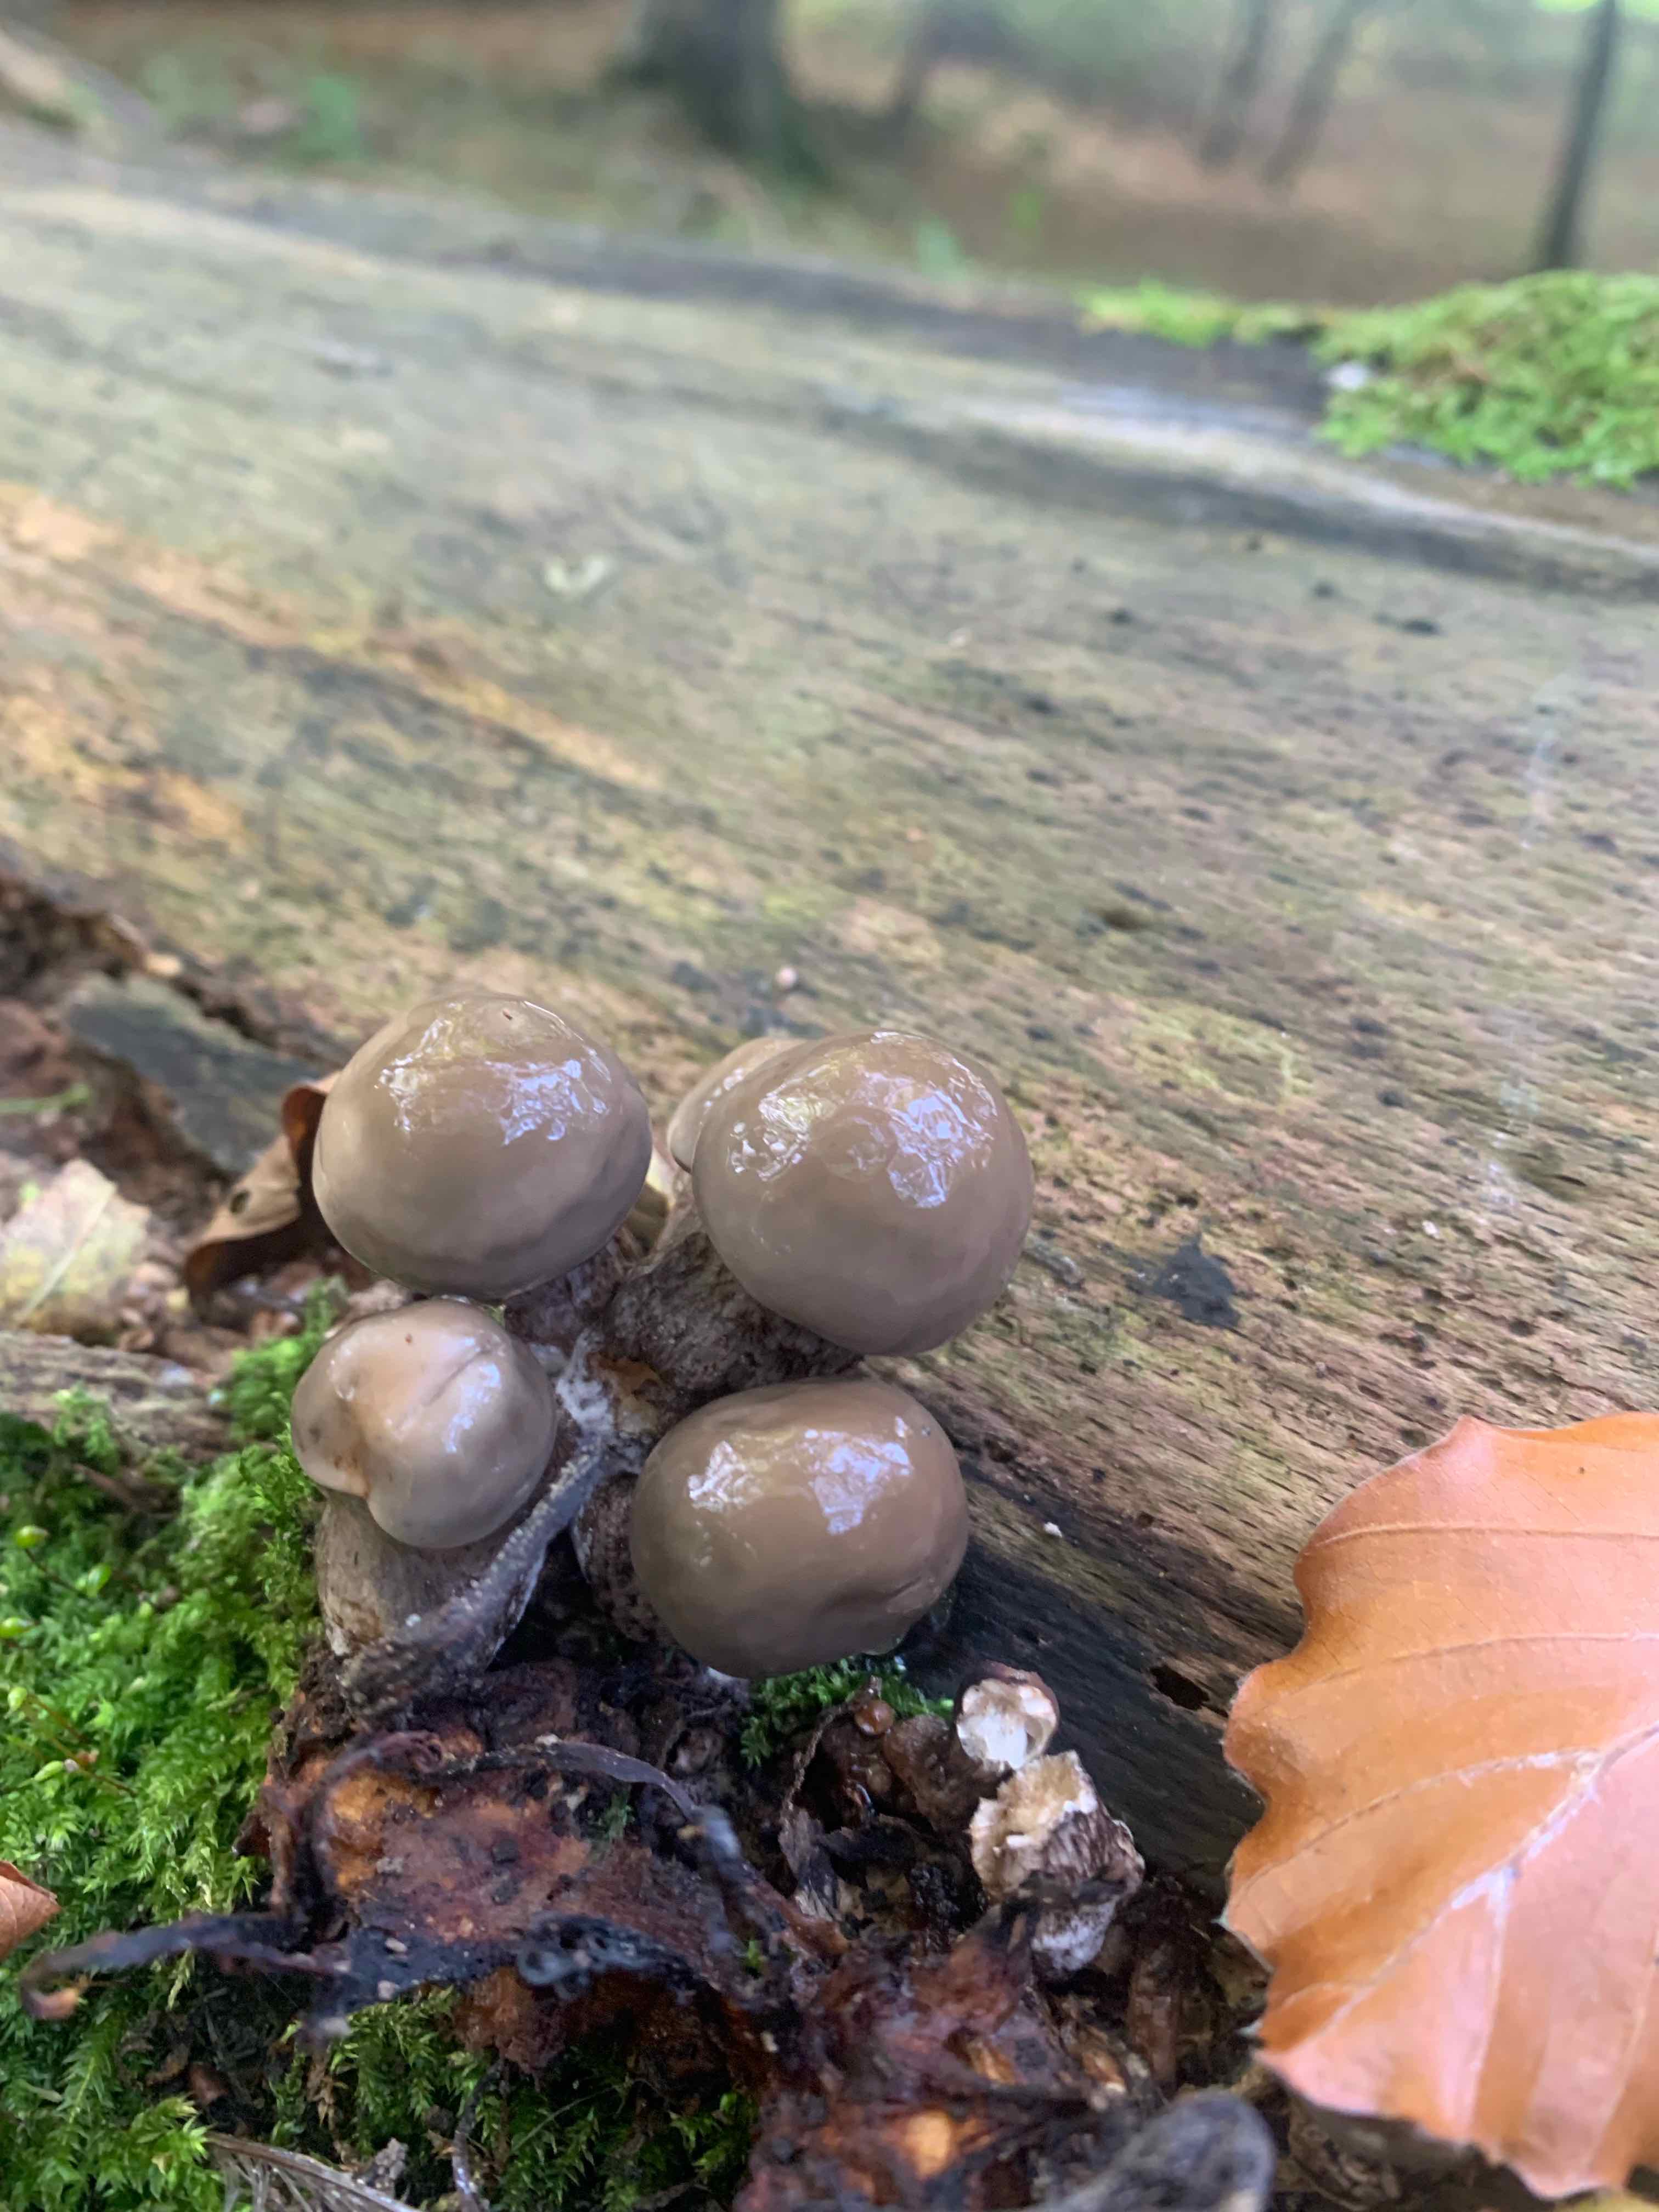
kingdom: Fungi
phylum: Basidiomycota
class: Agaricomycetes
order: Agaricales
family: Physalacriaceae
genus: Mucidula
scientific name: Mucidula mucida
